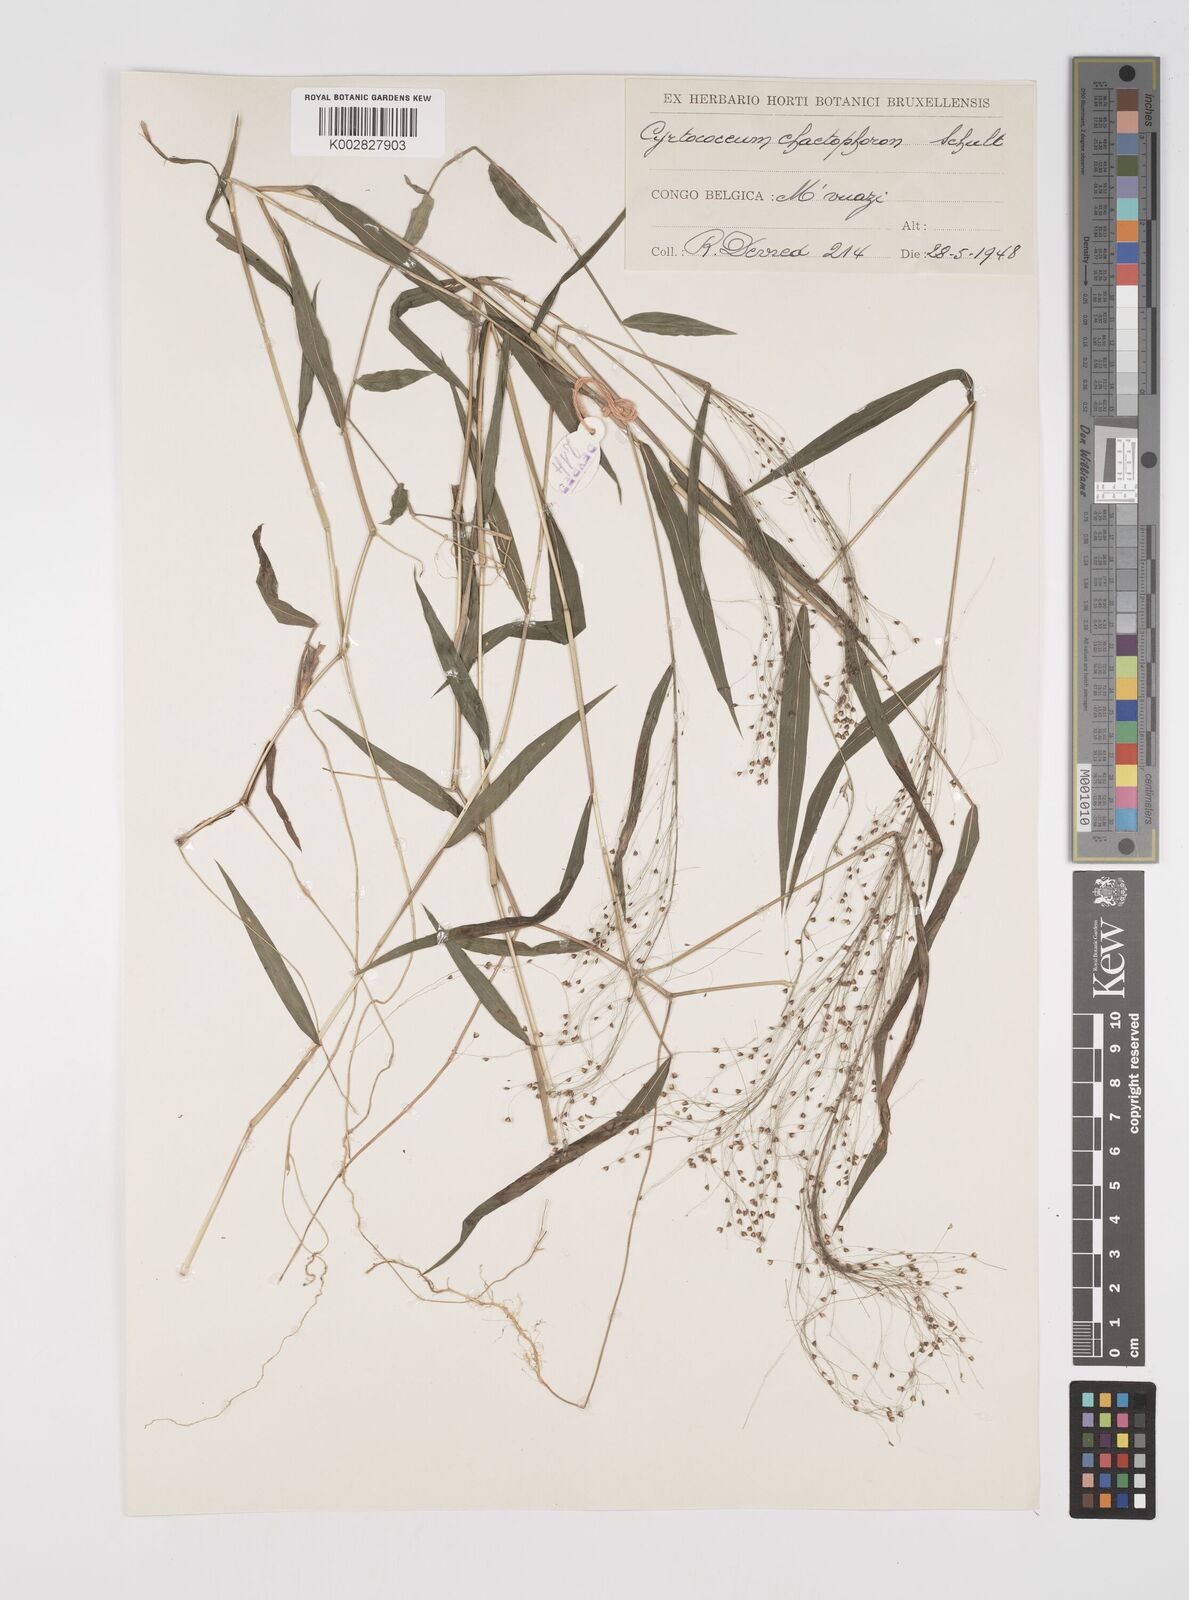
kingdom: Plantae
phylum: Tracheophyta
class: Liliopsida
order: Poales
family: Poaceae
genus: Cyrtococcum
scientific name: Cyrtococcum chaetophoron
